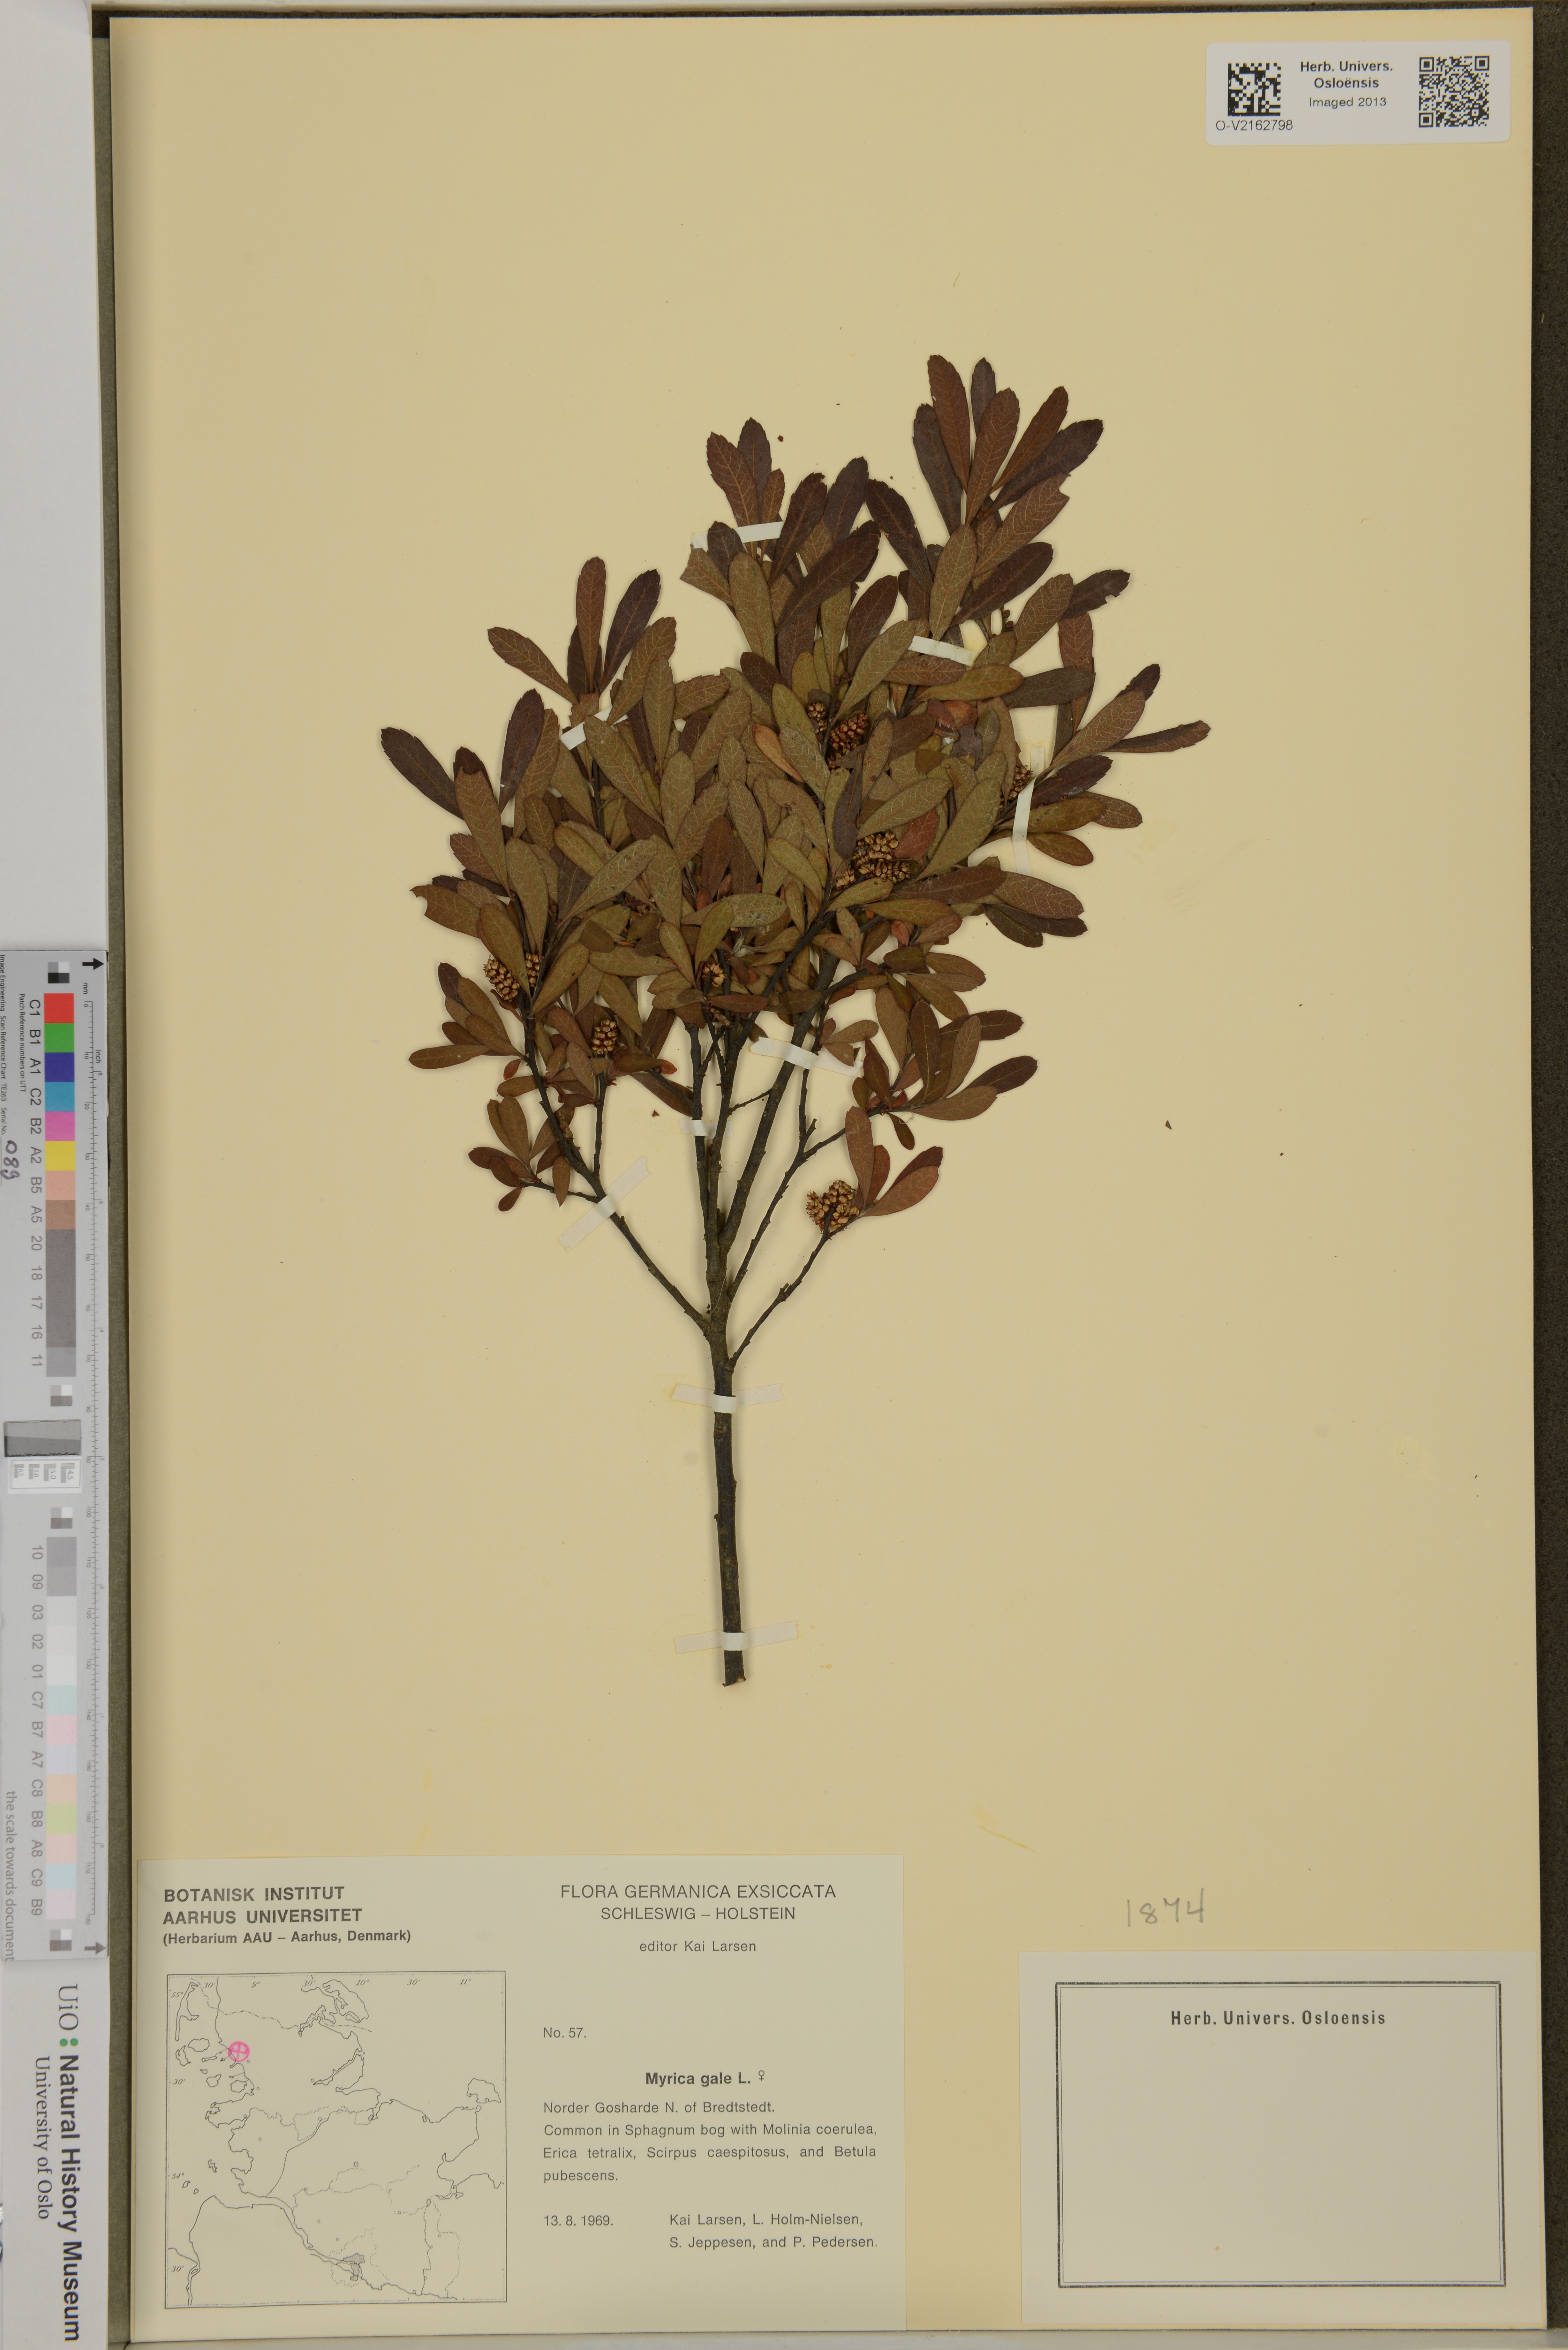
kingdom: Plantae
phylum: Tracheophyta
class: Magnoliopsida
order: Fagales
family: Myricaceae
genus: Myrica
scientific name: Myrica gale
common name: Sweet gale
